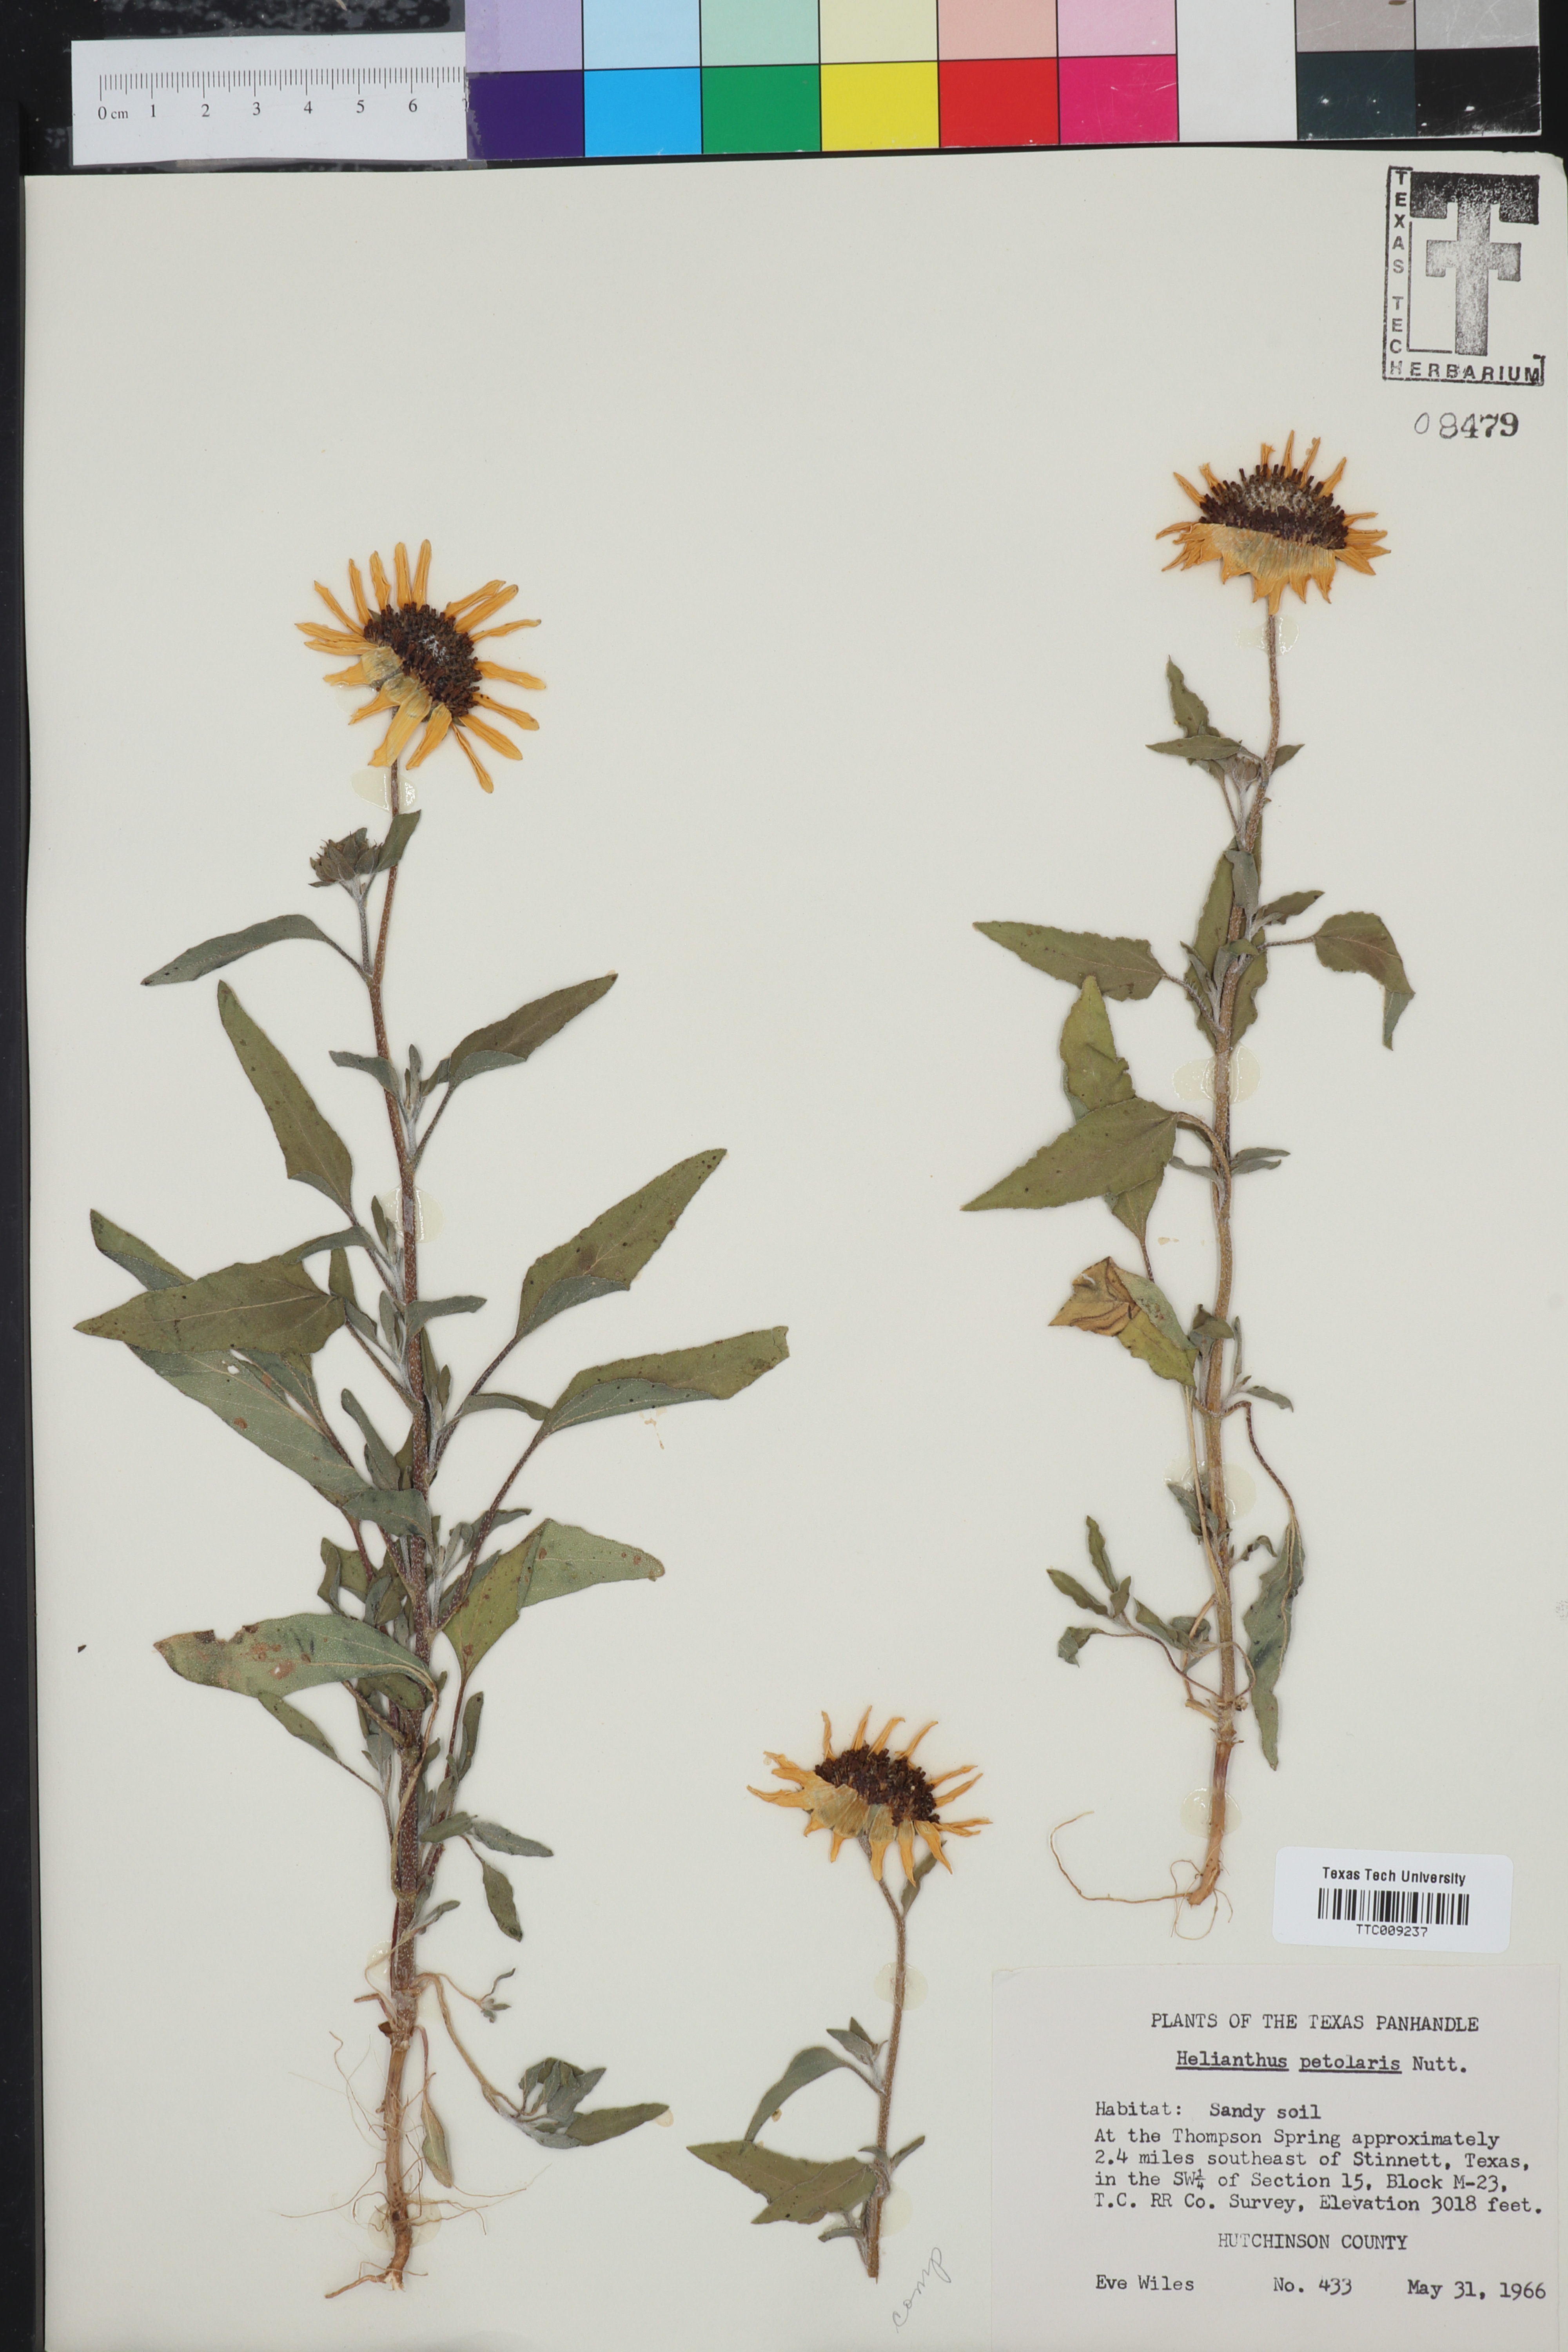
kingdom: Plantae
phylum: Tracheophyta
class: Magnoliopsida
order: Asterales
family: Asteraceae
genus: Helianthus
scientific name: Helianthus petiolaris
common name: Lesser sunflower
